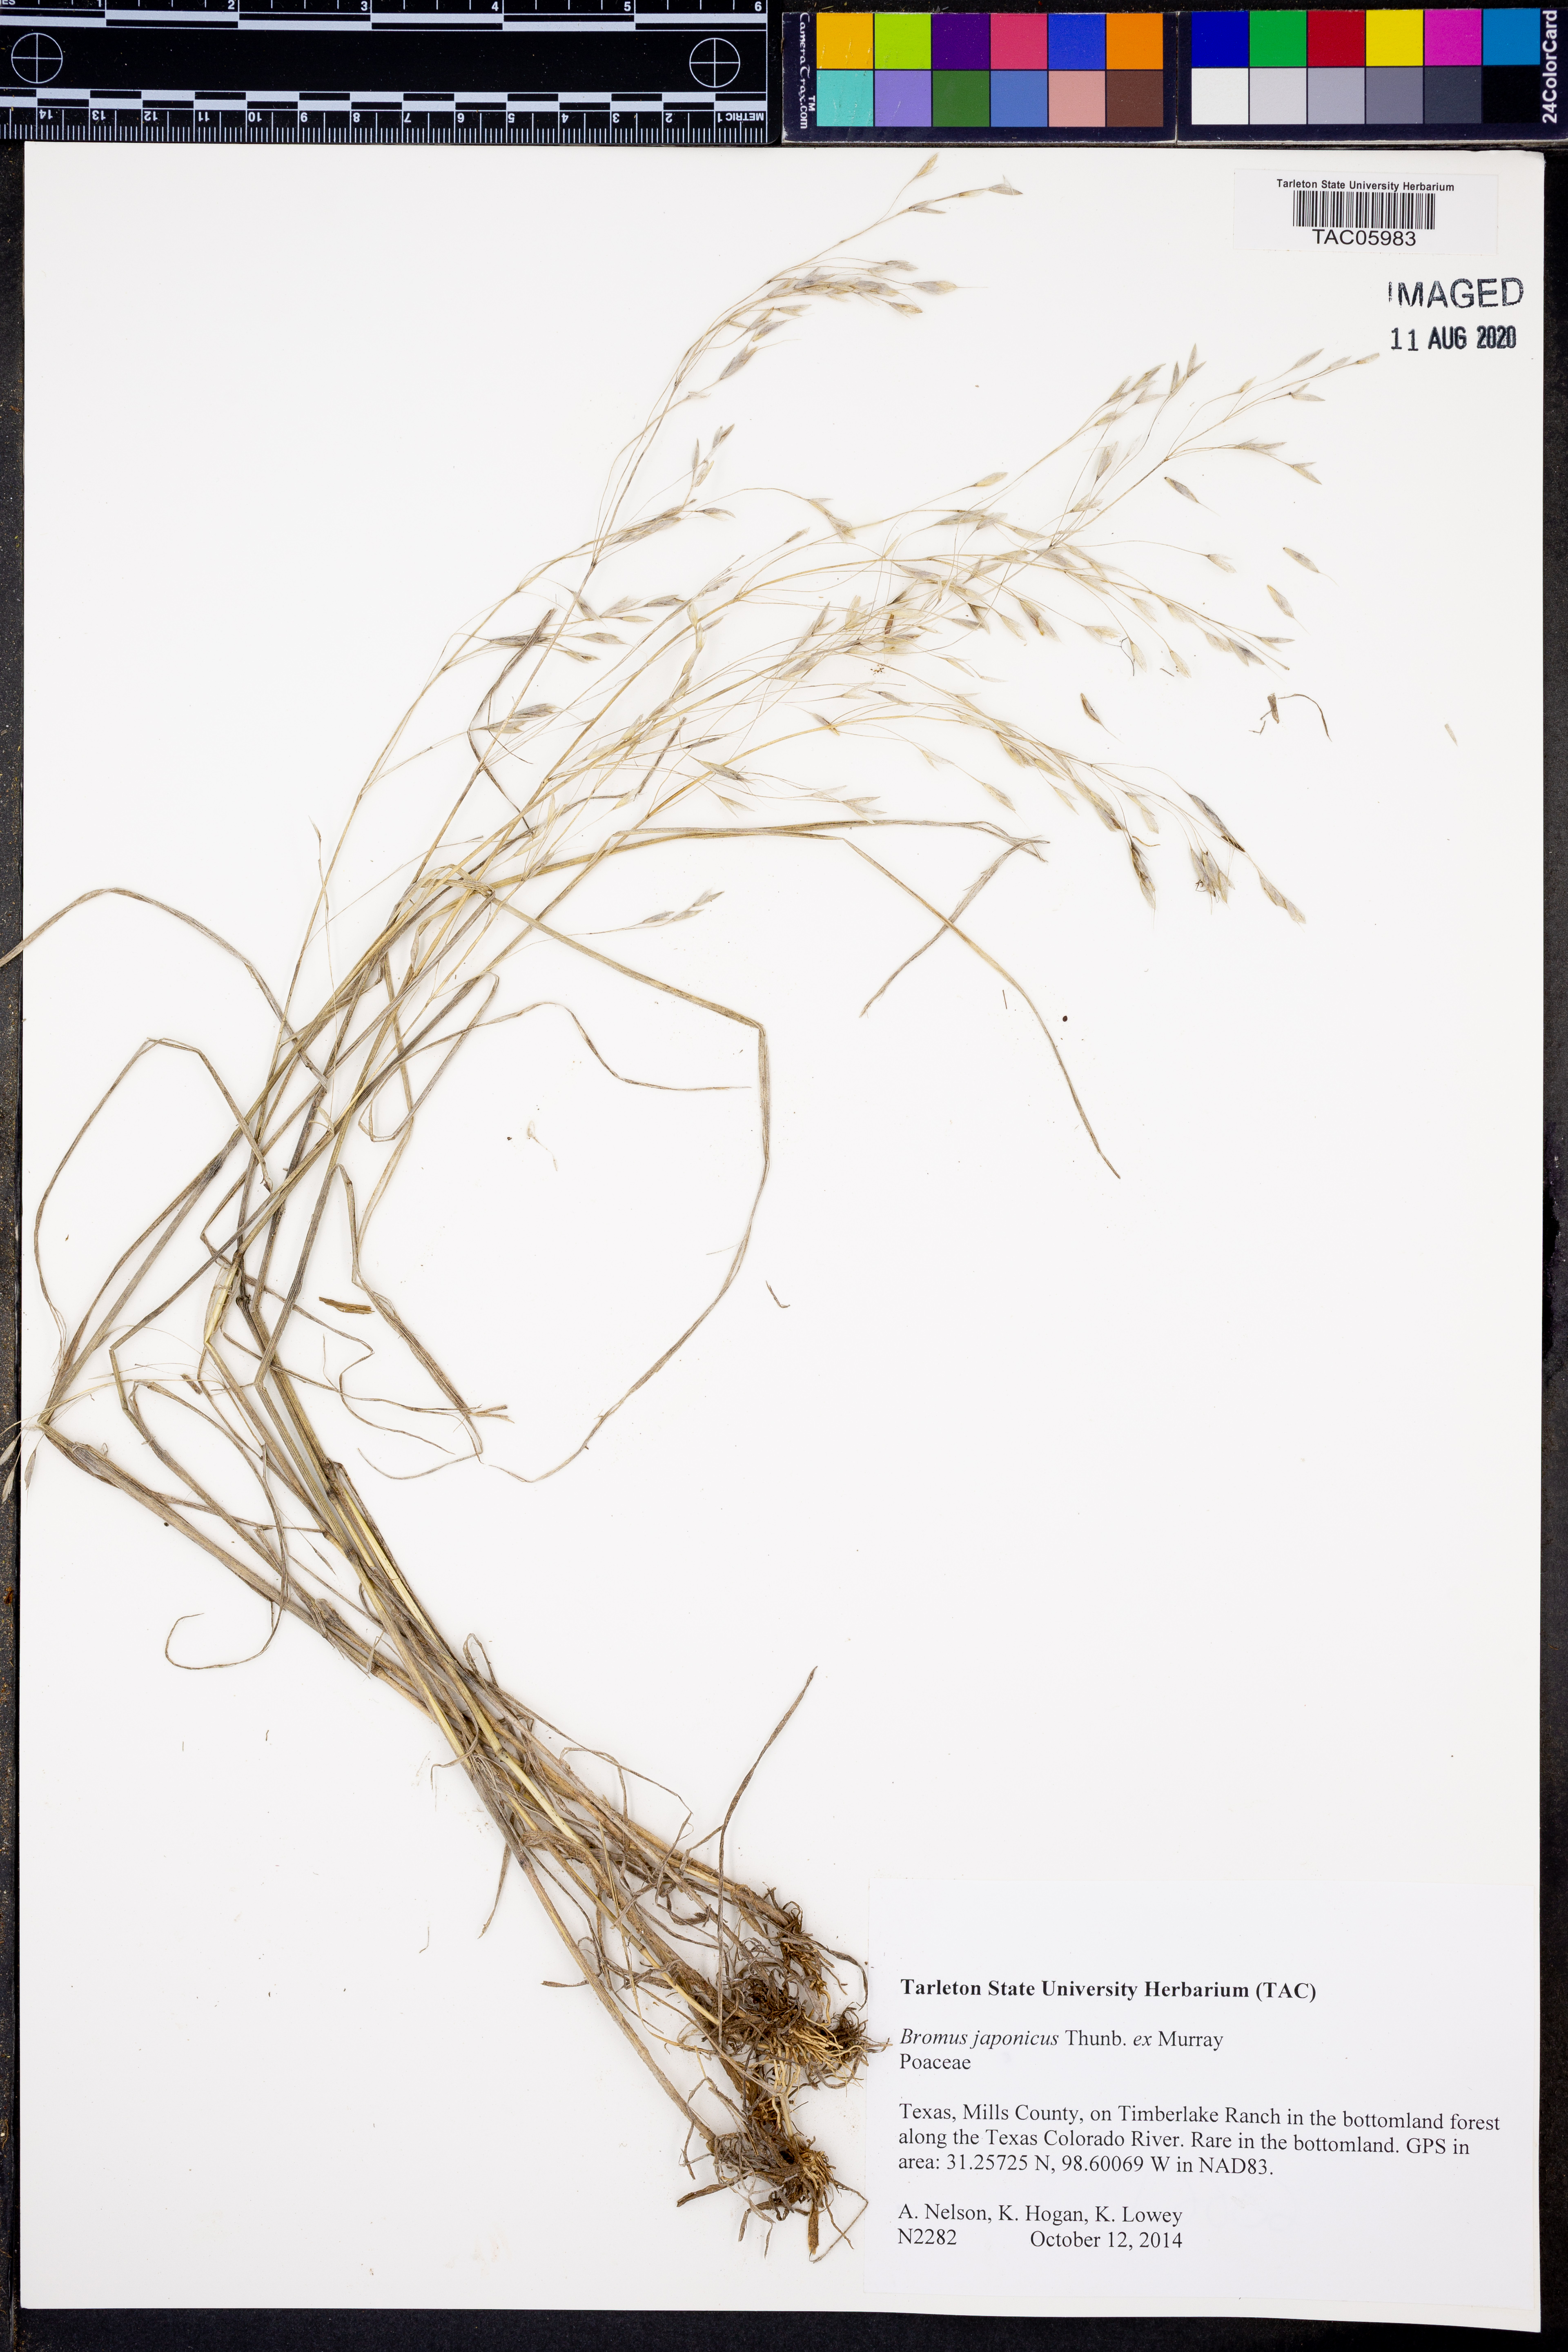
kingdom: Plantae
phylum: Tracheophyta
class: Liliopsida
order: Poales
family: Poaceae
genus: Bromus
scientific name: Bromus japonicus
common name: Japanese brome
